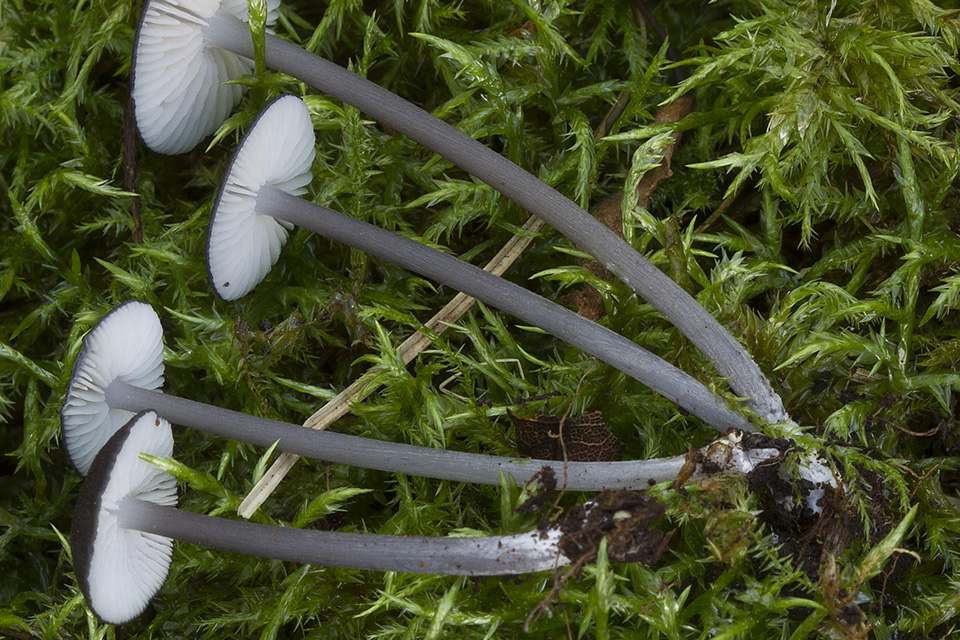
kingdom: Fungi
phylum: Basidiomycota
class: Agaricomycetes
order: Agaricales
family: Entolomataceae
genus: Entoloma
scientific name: Entoloma nordlandicum
